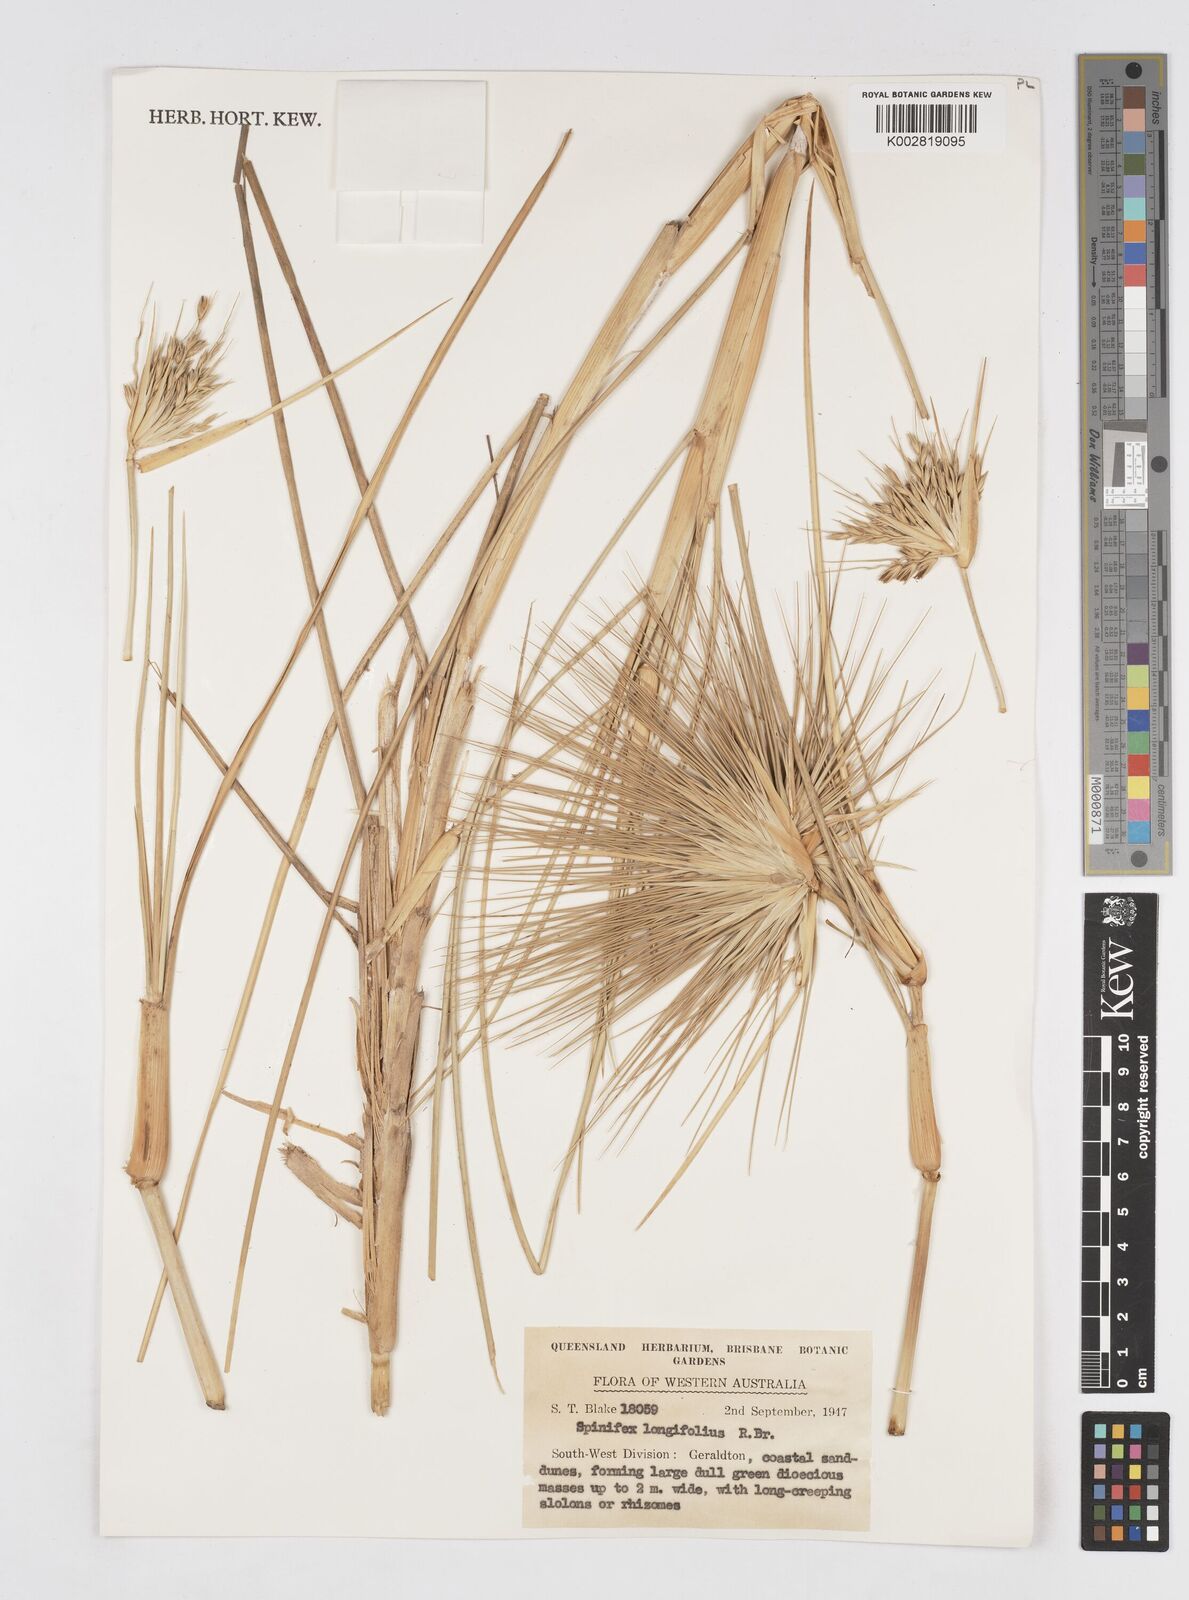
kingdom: Plantae
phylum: Tracheophyta
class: Liliopsida
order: Poales
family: Poaceae
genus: Spinifex
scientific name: Spinifex longifolius
